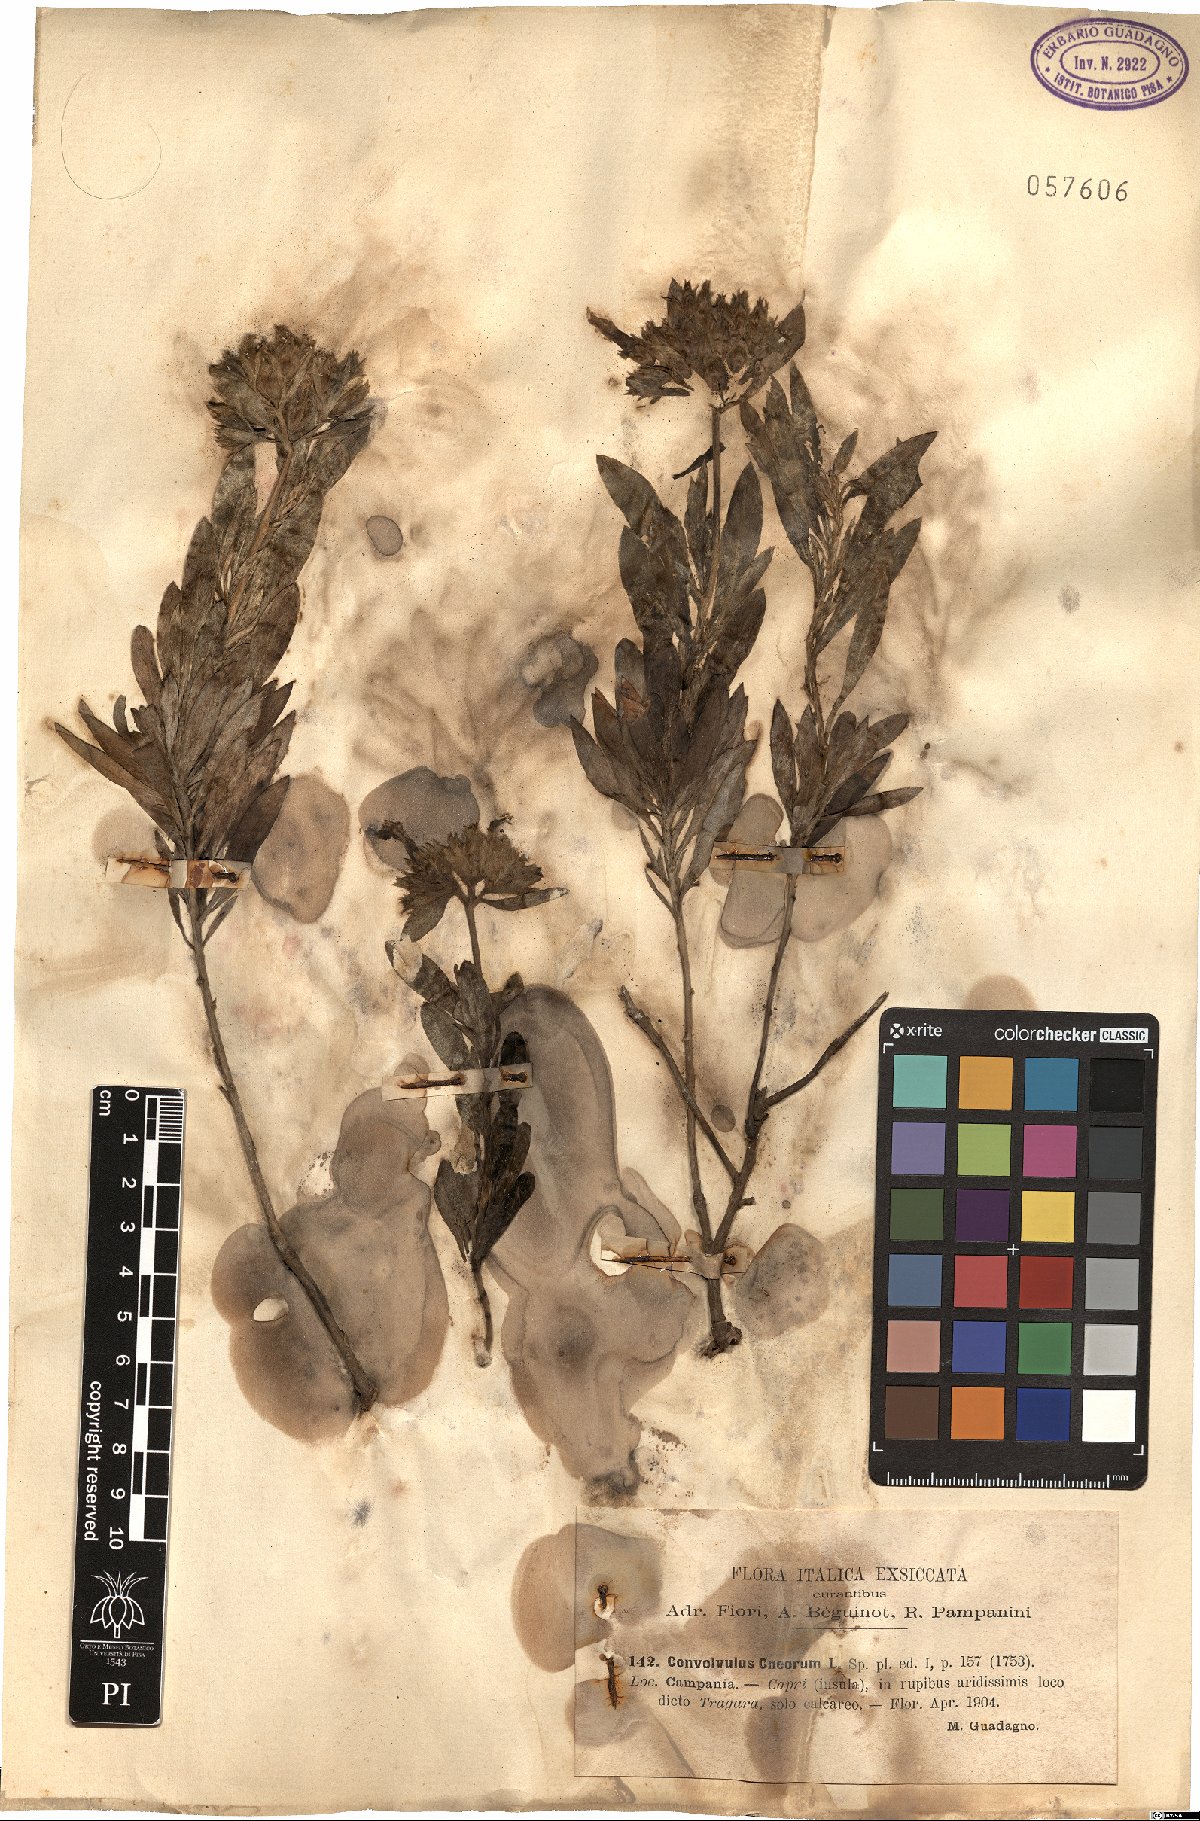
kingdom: Plantae
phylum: Tracheophyta
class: Magnoliopsida
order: Solanales
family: Convolvulaceae
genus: Convolvulus
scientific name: Convolvulus cneorum
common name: Silverbush
